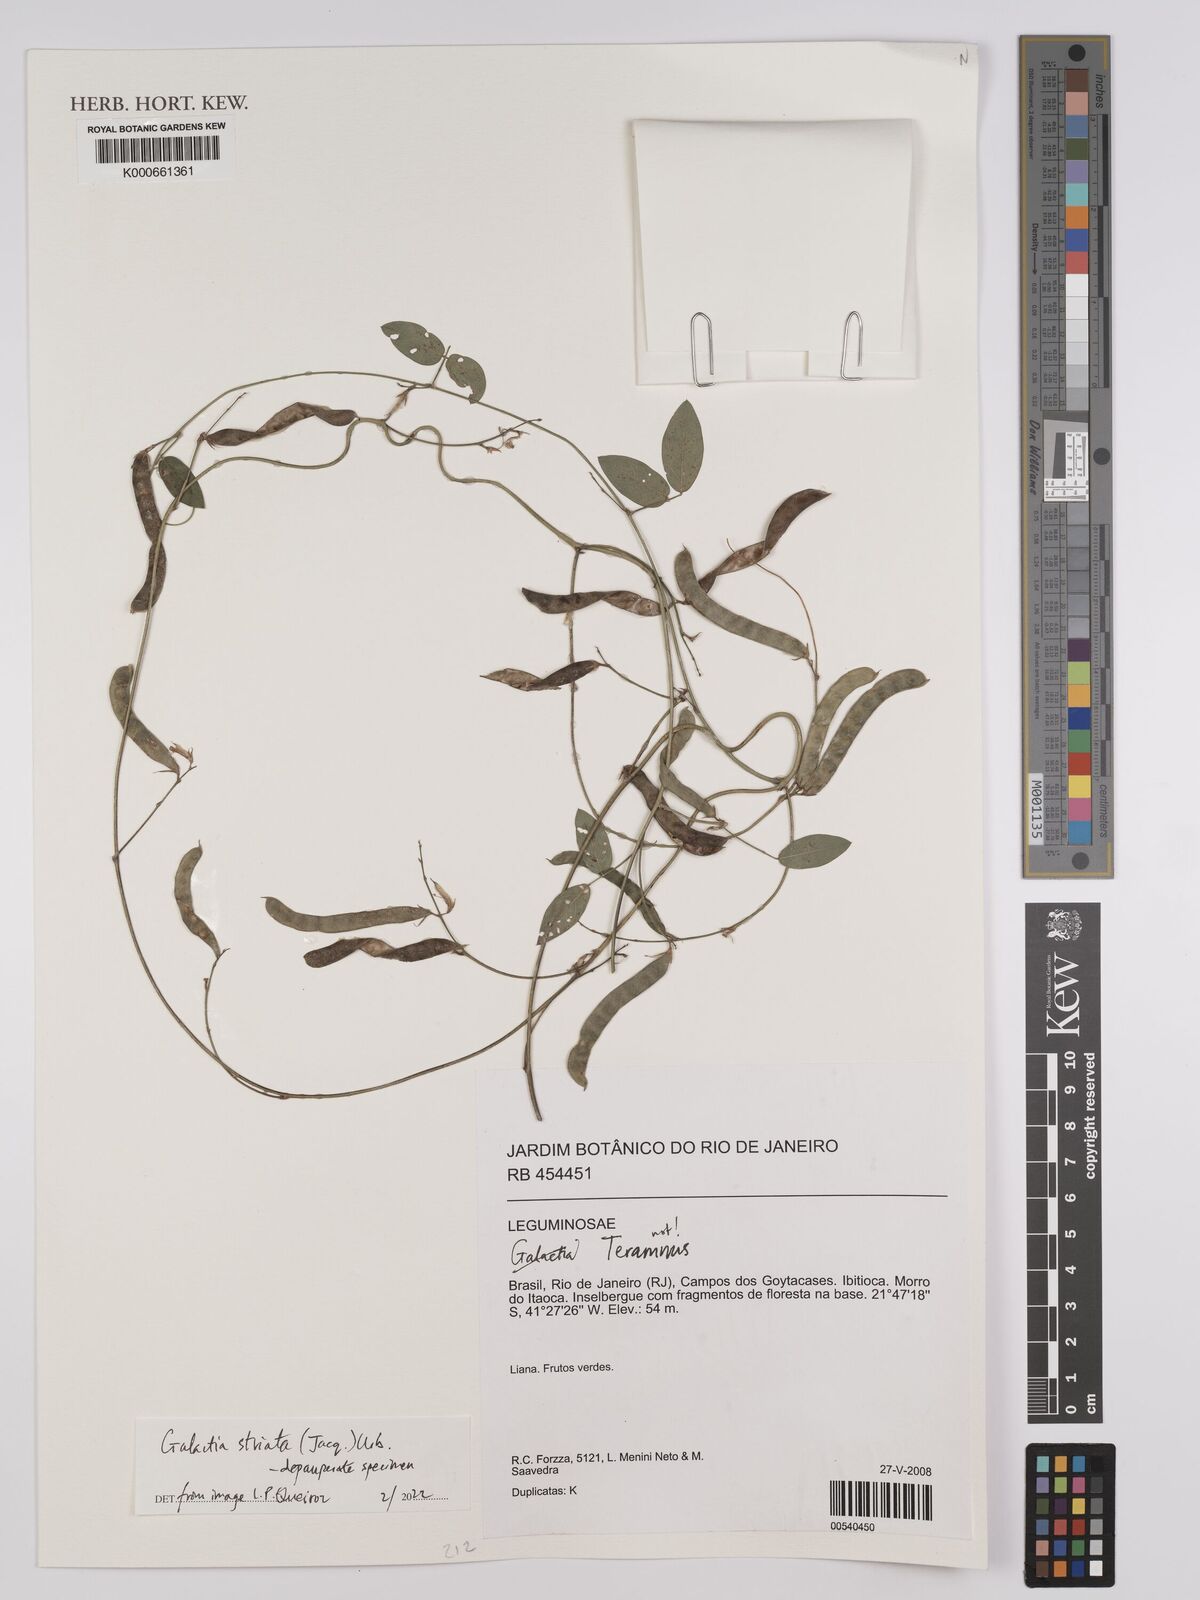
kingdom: Plantae
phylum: Tracheophyta
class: Magnoliopsida
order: Fabales
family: Fabaceae
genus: Galactia
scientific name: Galactia
